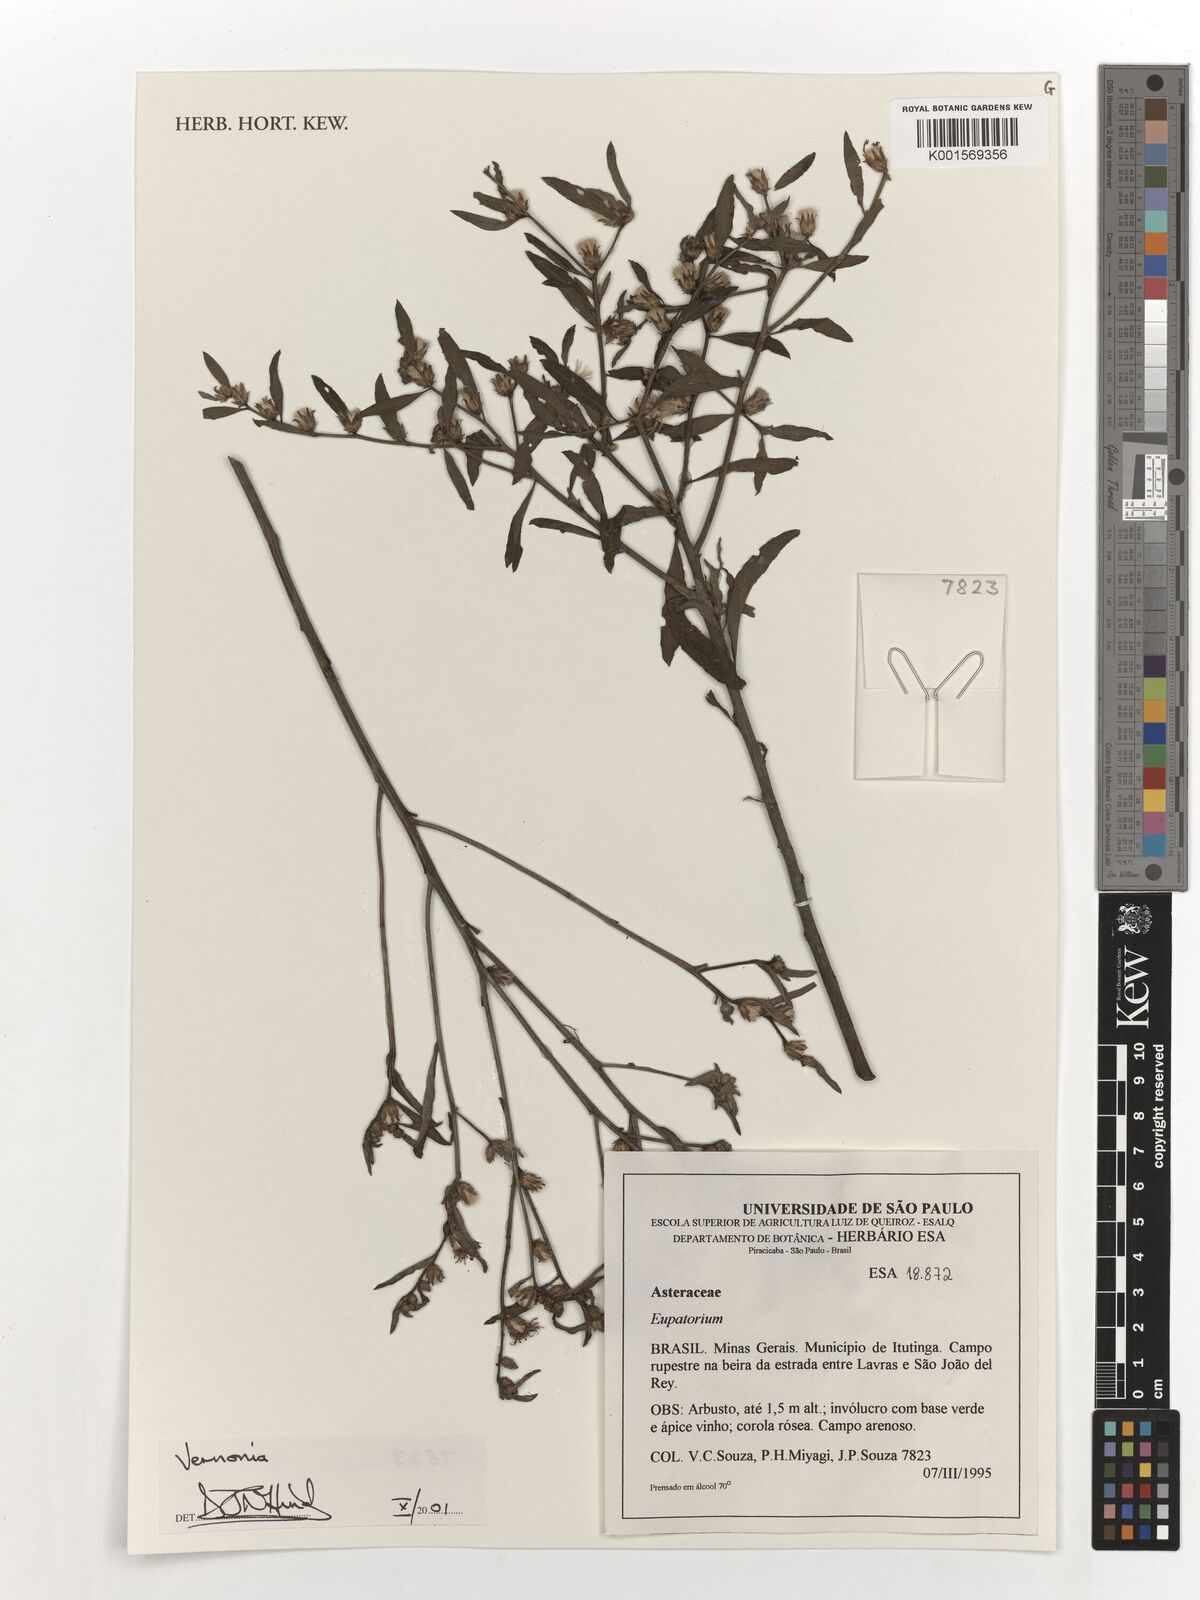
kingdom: Plantae
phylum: Tracheophyta
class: Magnoliopsida
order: Asterales
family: Asteraceae
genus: Eupatorium
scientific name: Eupatorium
